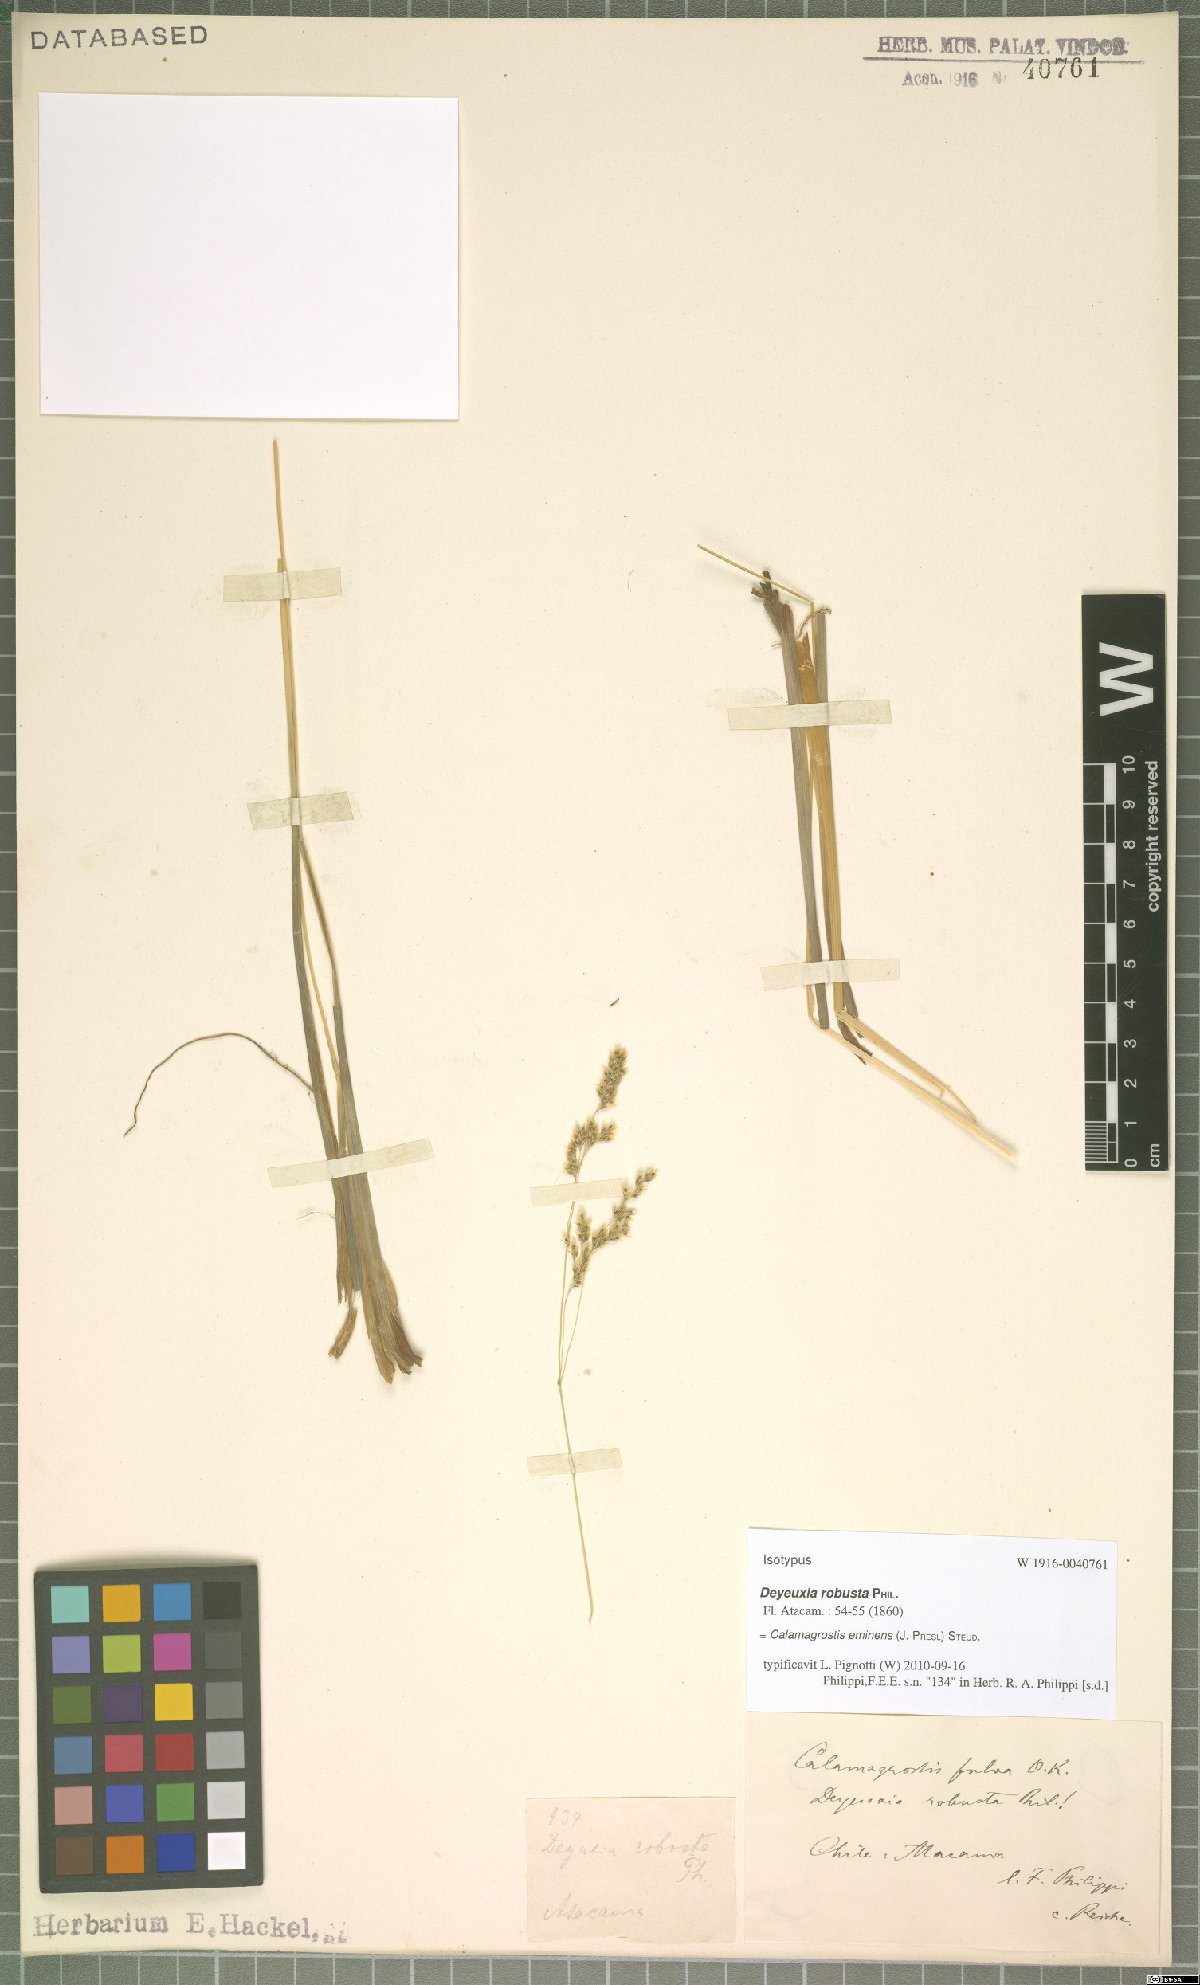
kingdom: Plantae
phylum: Tracheophyta
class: Liliopsida
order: Poales
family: Poaceae
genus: Deschampsia
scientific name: Deschampsia eminens
